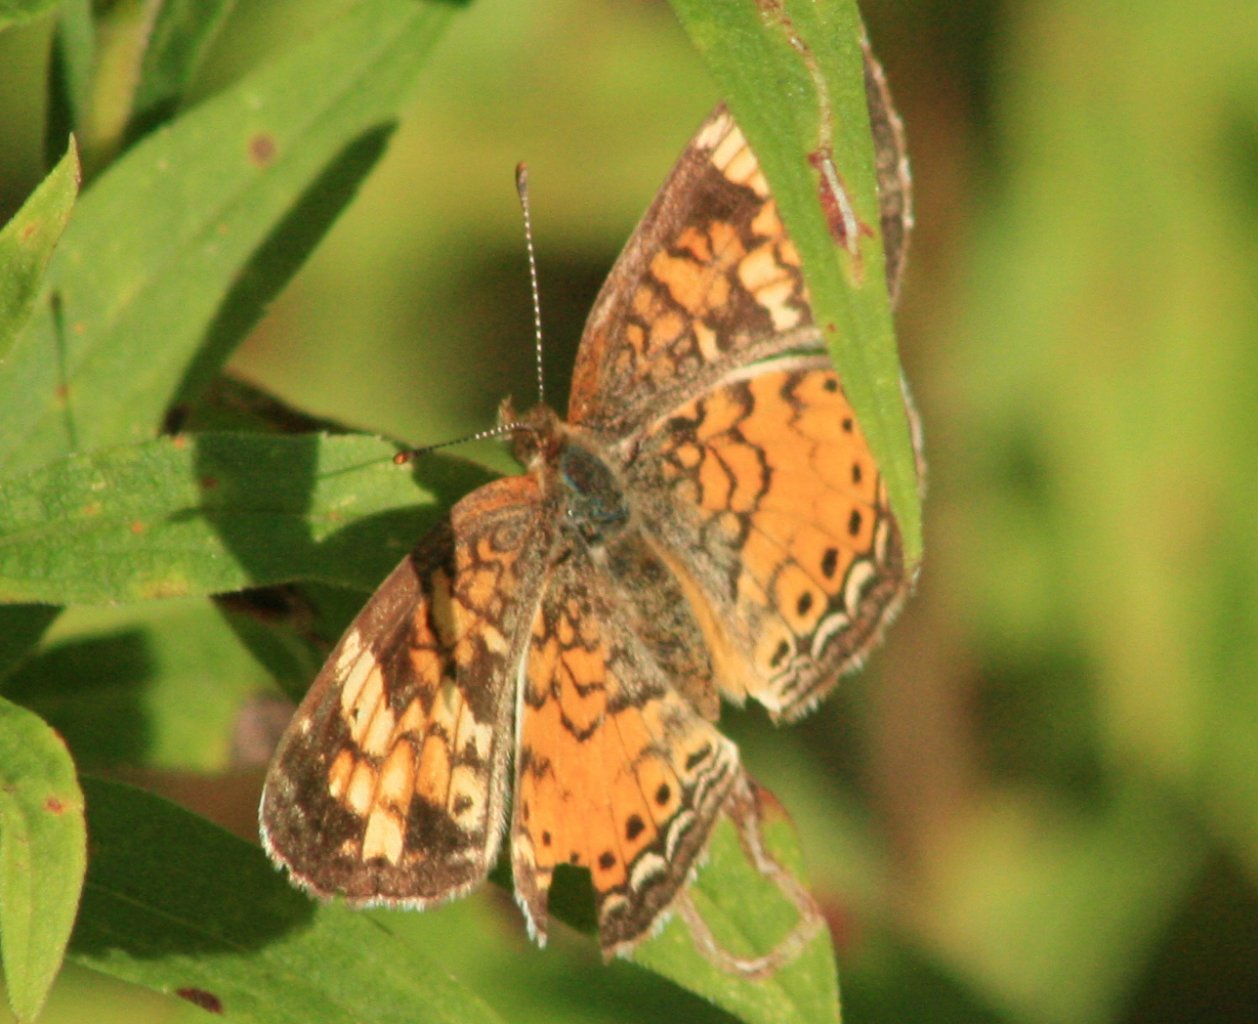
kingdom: Animalia
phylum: Arthropoda
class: Insecta
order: Lepidoptera
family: Nymphalidae
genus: Phyciodes
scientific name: Phyciodes tharos
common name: Northern Crescent
